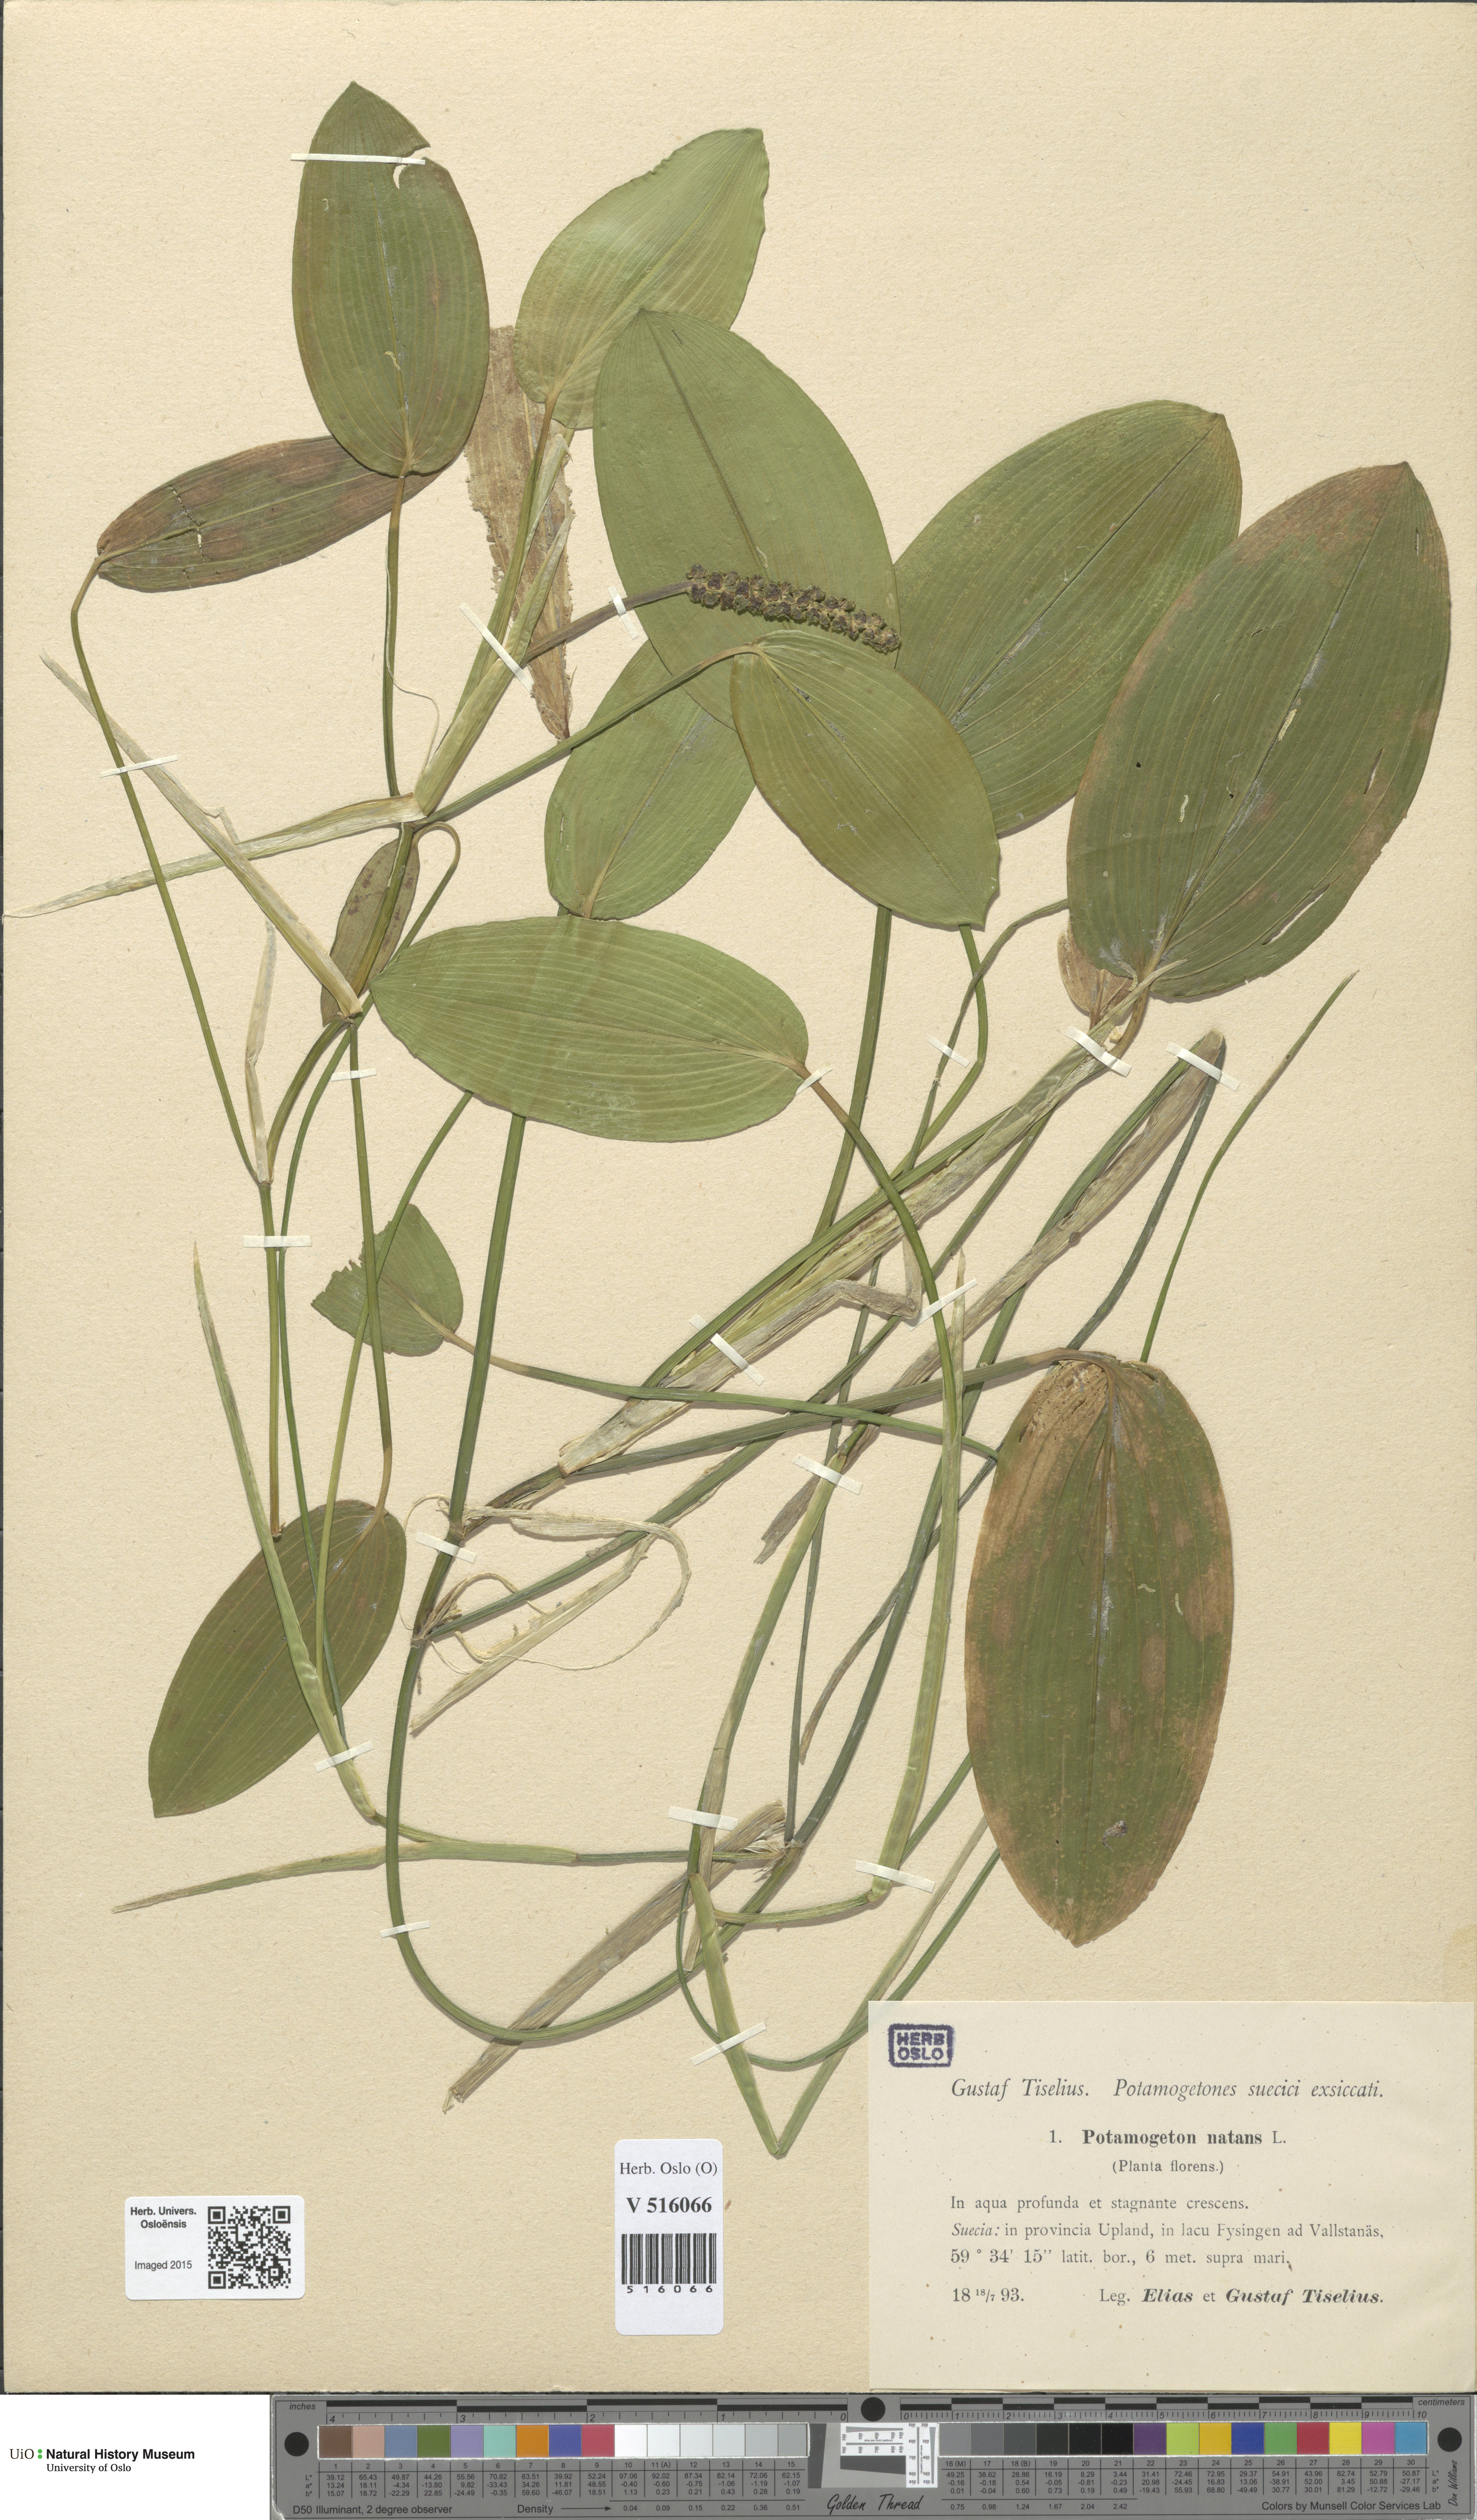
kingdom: Plantae
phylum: Tracheophyta
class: Liliopsida
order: Alismatales
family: Potamogetonaceae
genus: Potamogeton
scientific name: Potamogeton natans
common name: Broad-leaved pondweed
